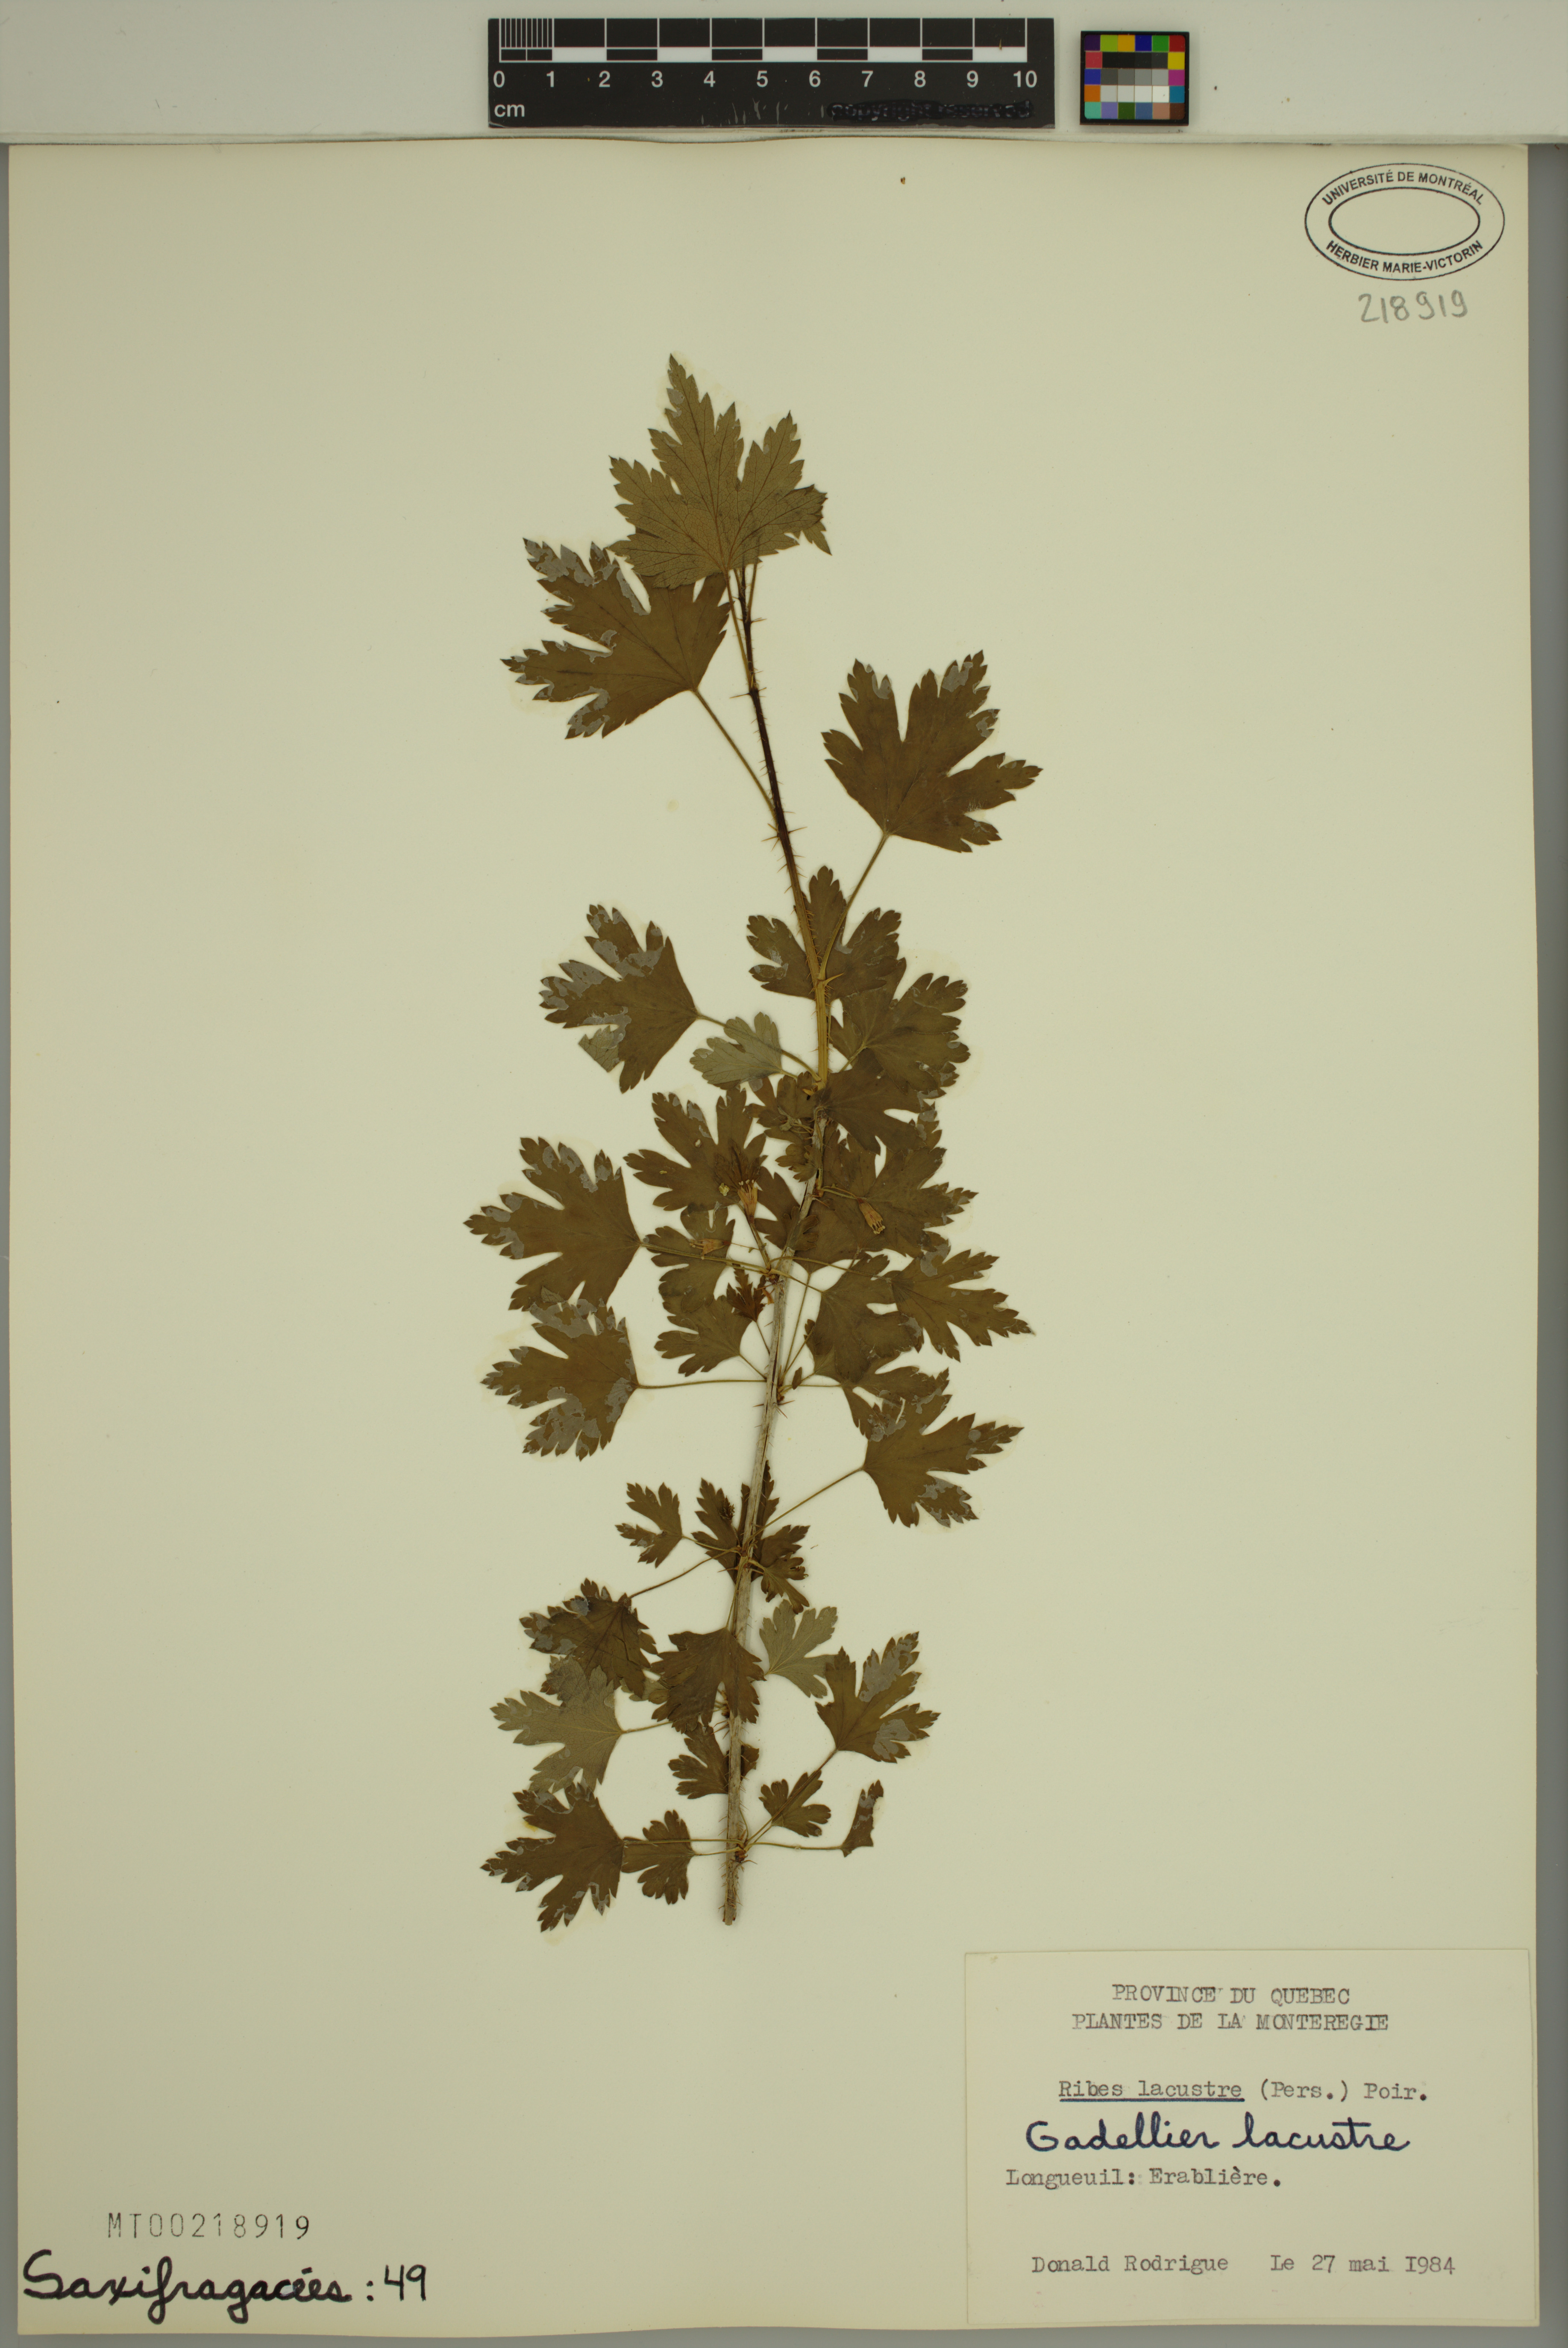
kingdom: Plantae
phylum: Tracheophyta
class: Magnoliopsida
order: Saxifragales
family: Grossulariaceae
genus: Ribes
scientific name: Ribes hirtellum
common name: Hairy gooseberry
